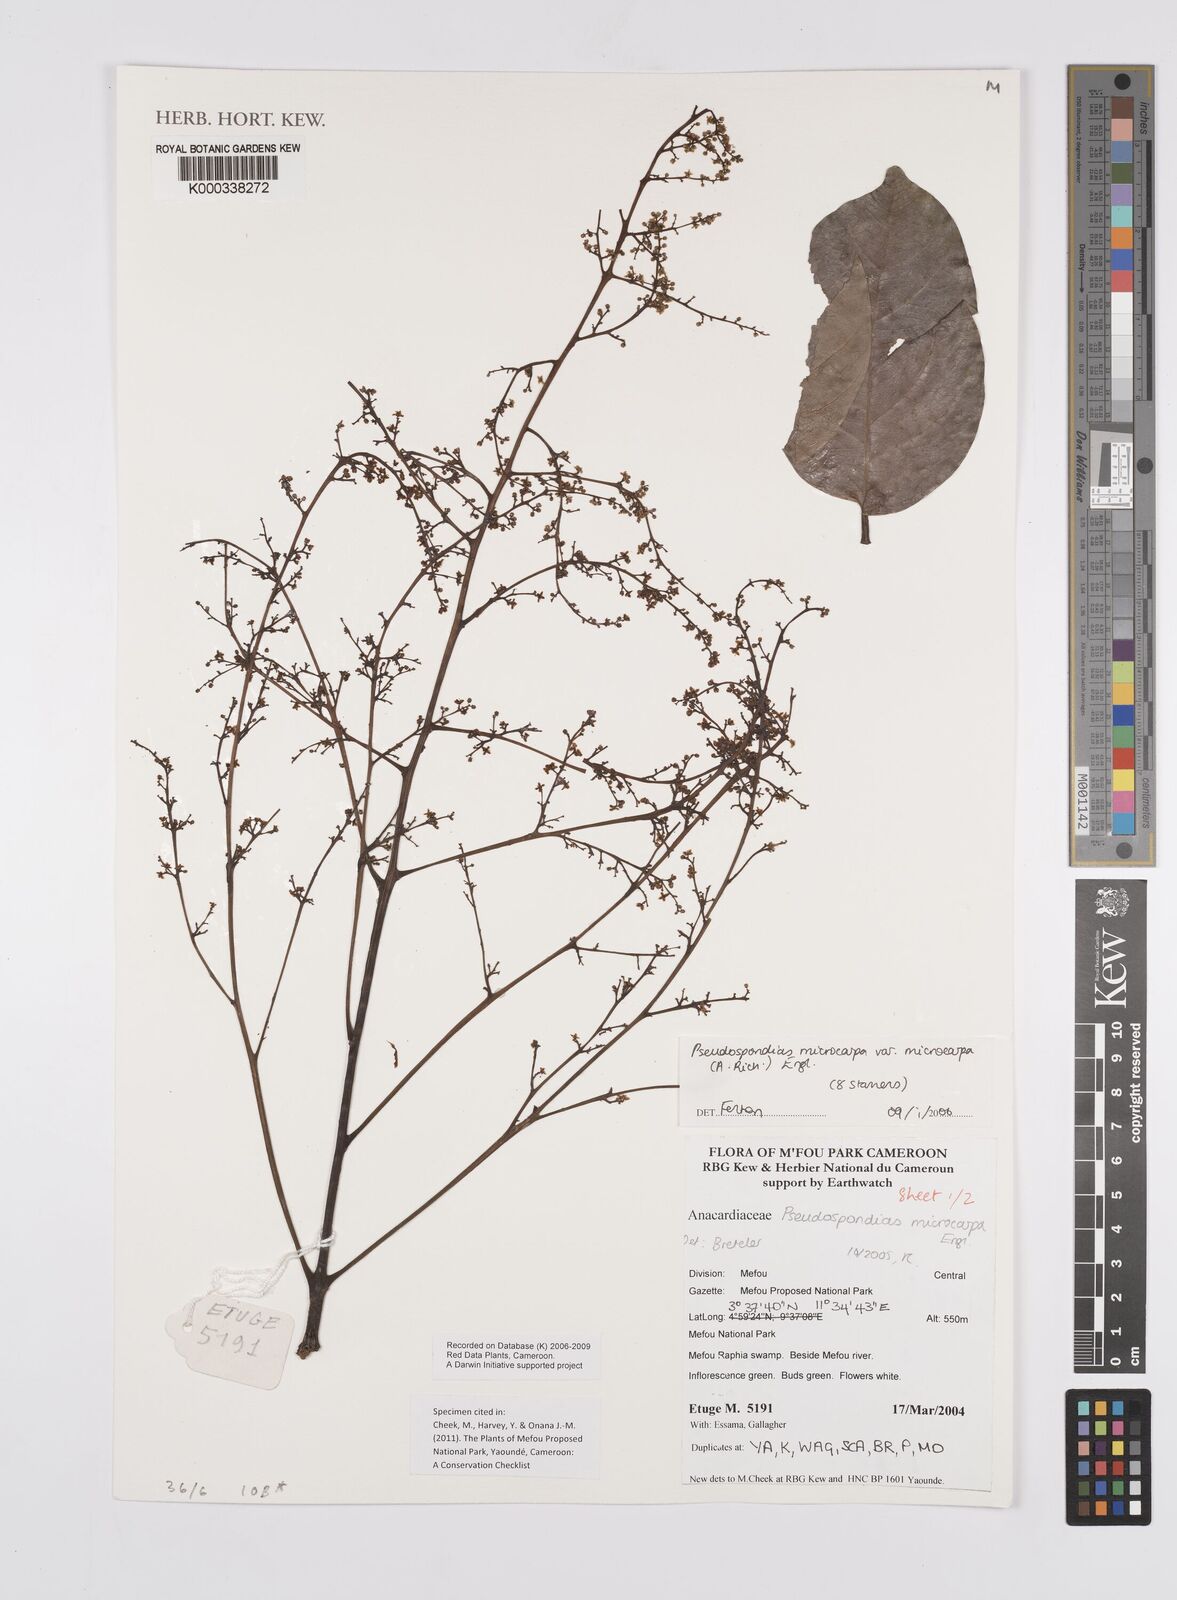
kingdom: Plantae
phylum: Tracheophyta
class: Magnoliopsida
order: Sapindales
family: Anacardiaceae
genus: Pseudospondias
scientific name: Pseudospondias microcarpa
